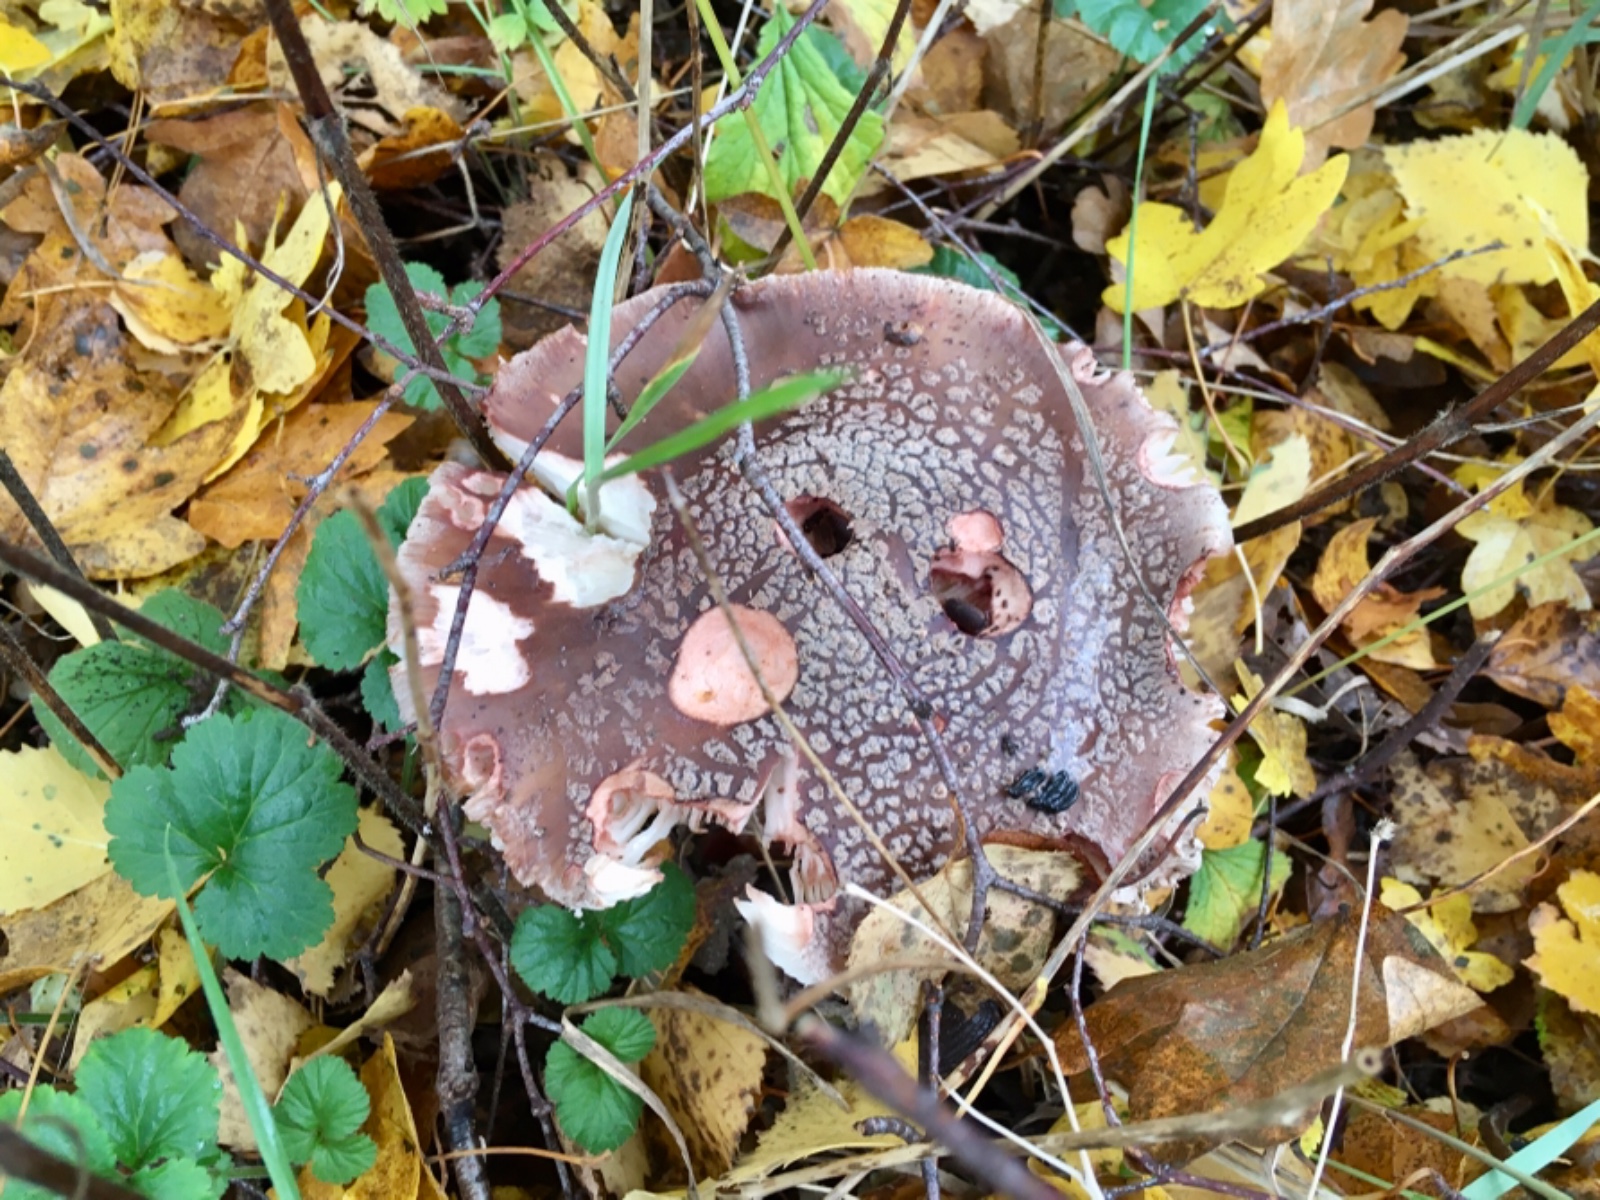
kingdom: Fungi
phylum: Basidiomycota
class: Agaricomycetes
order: Agaricales
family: Amanitaceae
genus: Amanita
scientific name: Amanita rubescens
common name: rødmende fluesvamp
